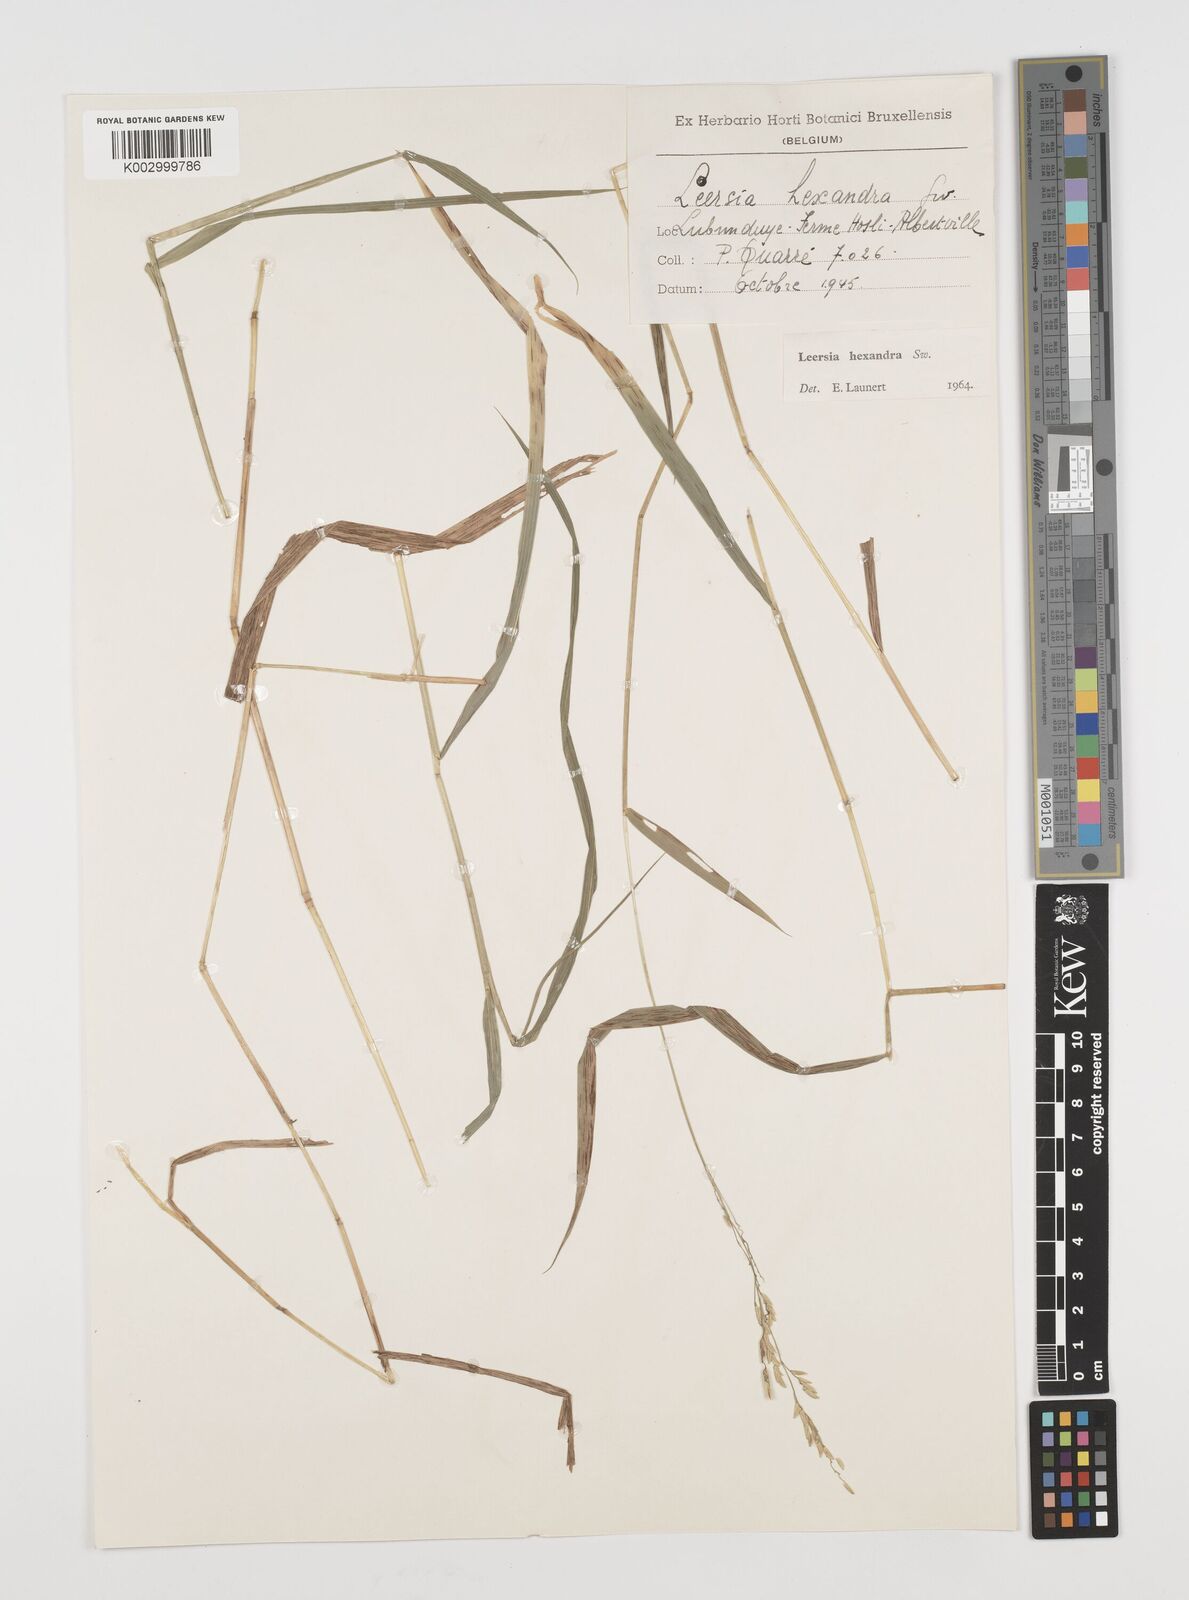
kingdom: Plantae
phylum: Tracheophyta
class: Liliopsida
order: Poales
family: Poaceae
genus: Leersia
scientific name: Leersia hexandra
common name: Southern cut grass
